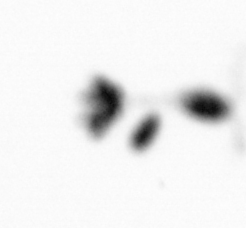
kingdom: Animalia
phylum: Arthropoda
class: Copepoda
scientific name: Copepoda
